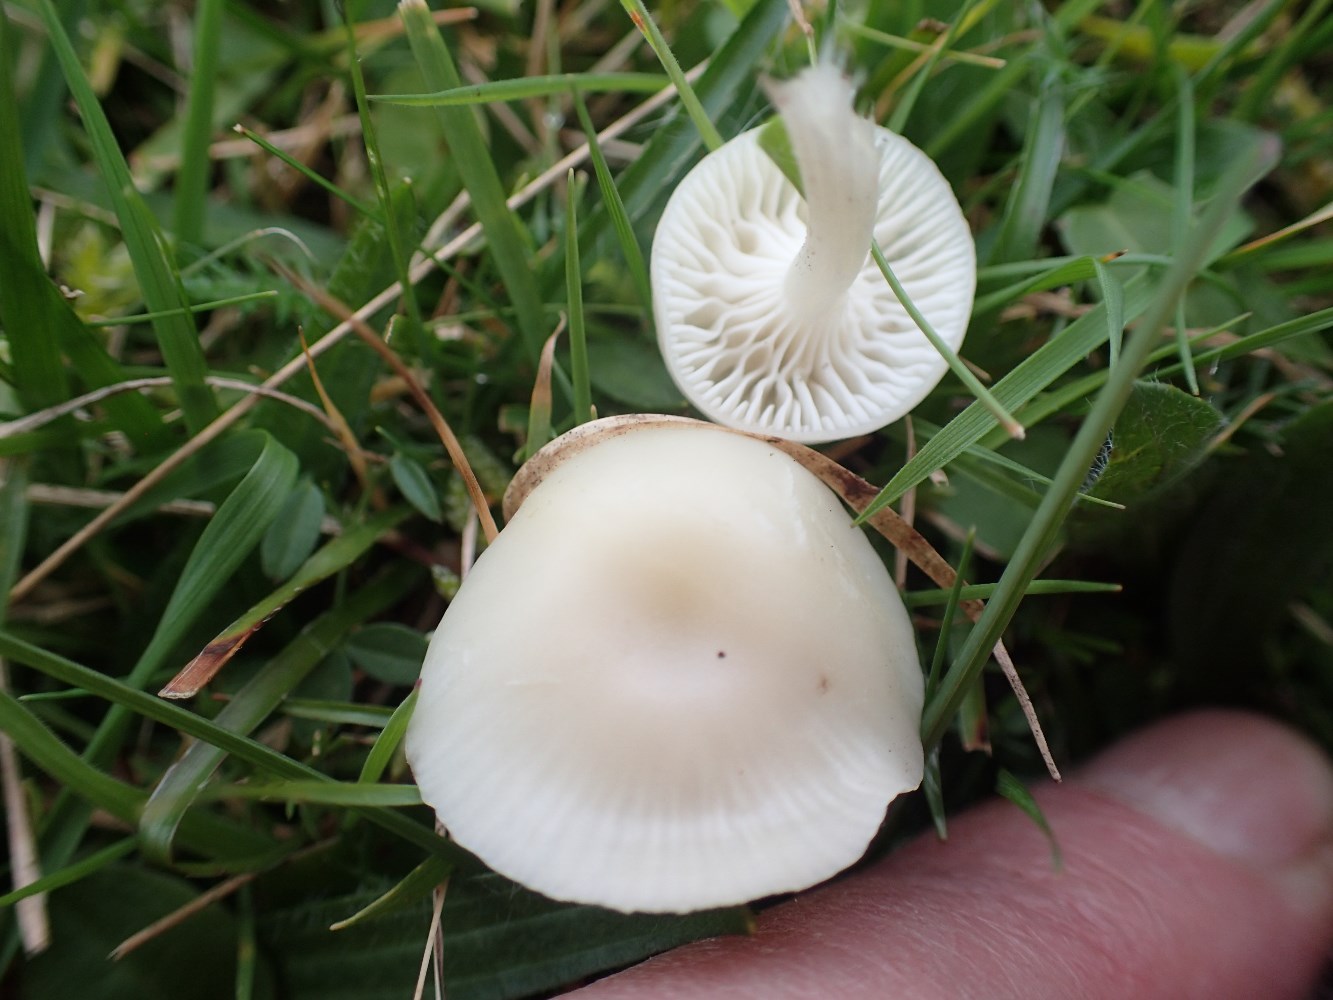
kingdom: Fungi
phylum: Basidiomycota
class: Agaricomycetes
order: Agaricales
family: Hygrophoraceae
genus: Cuphophyllus
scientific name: Cuphophyllus virgineus
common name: snehvid vokshat
